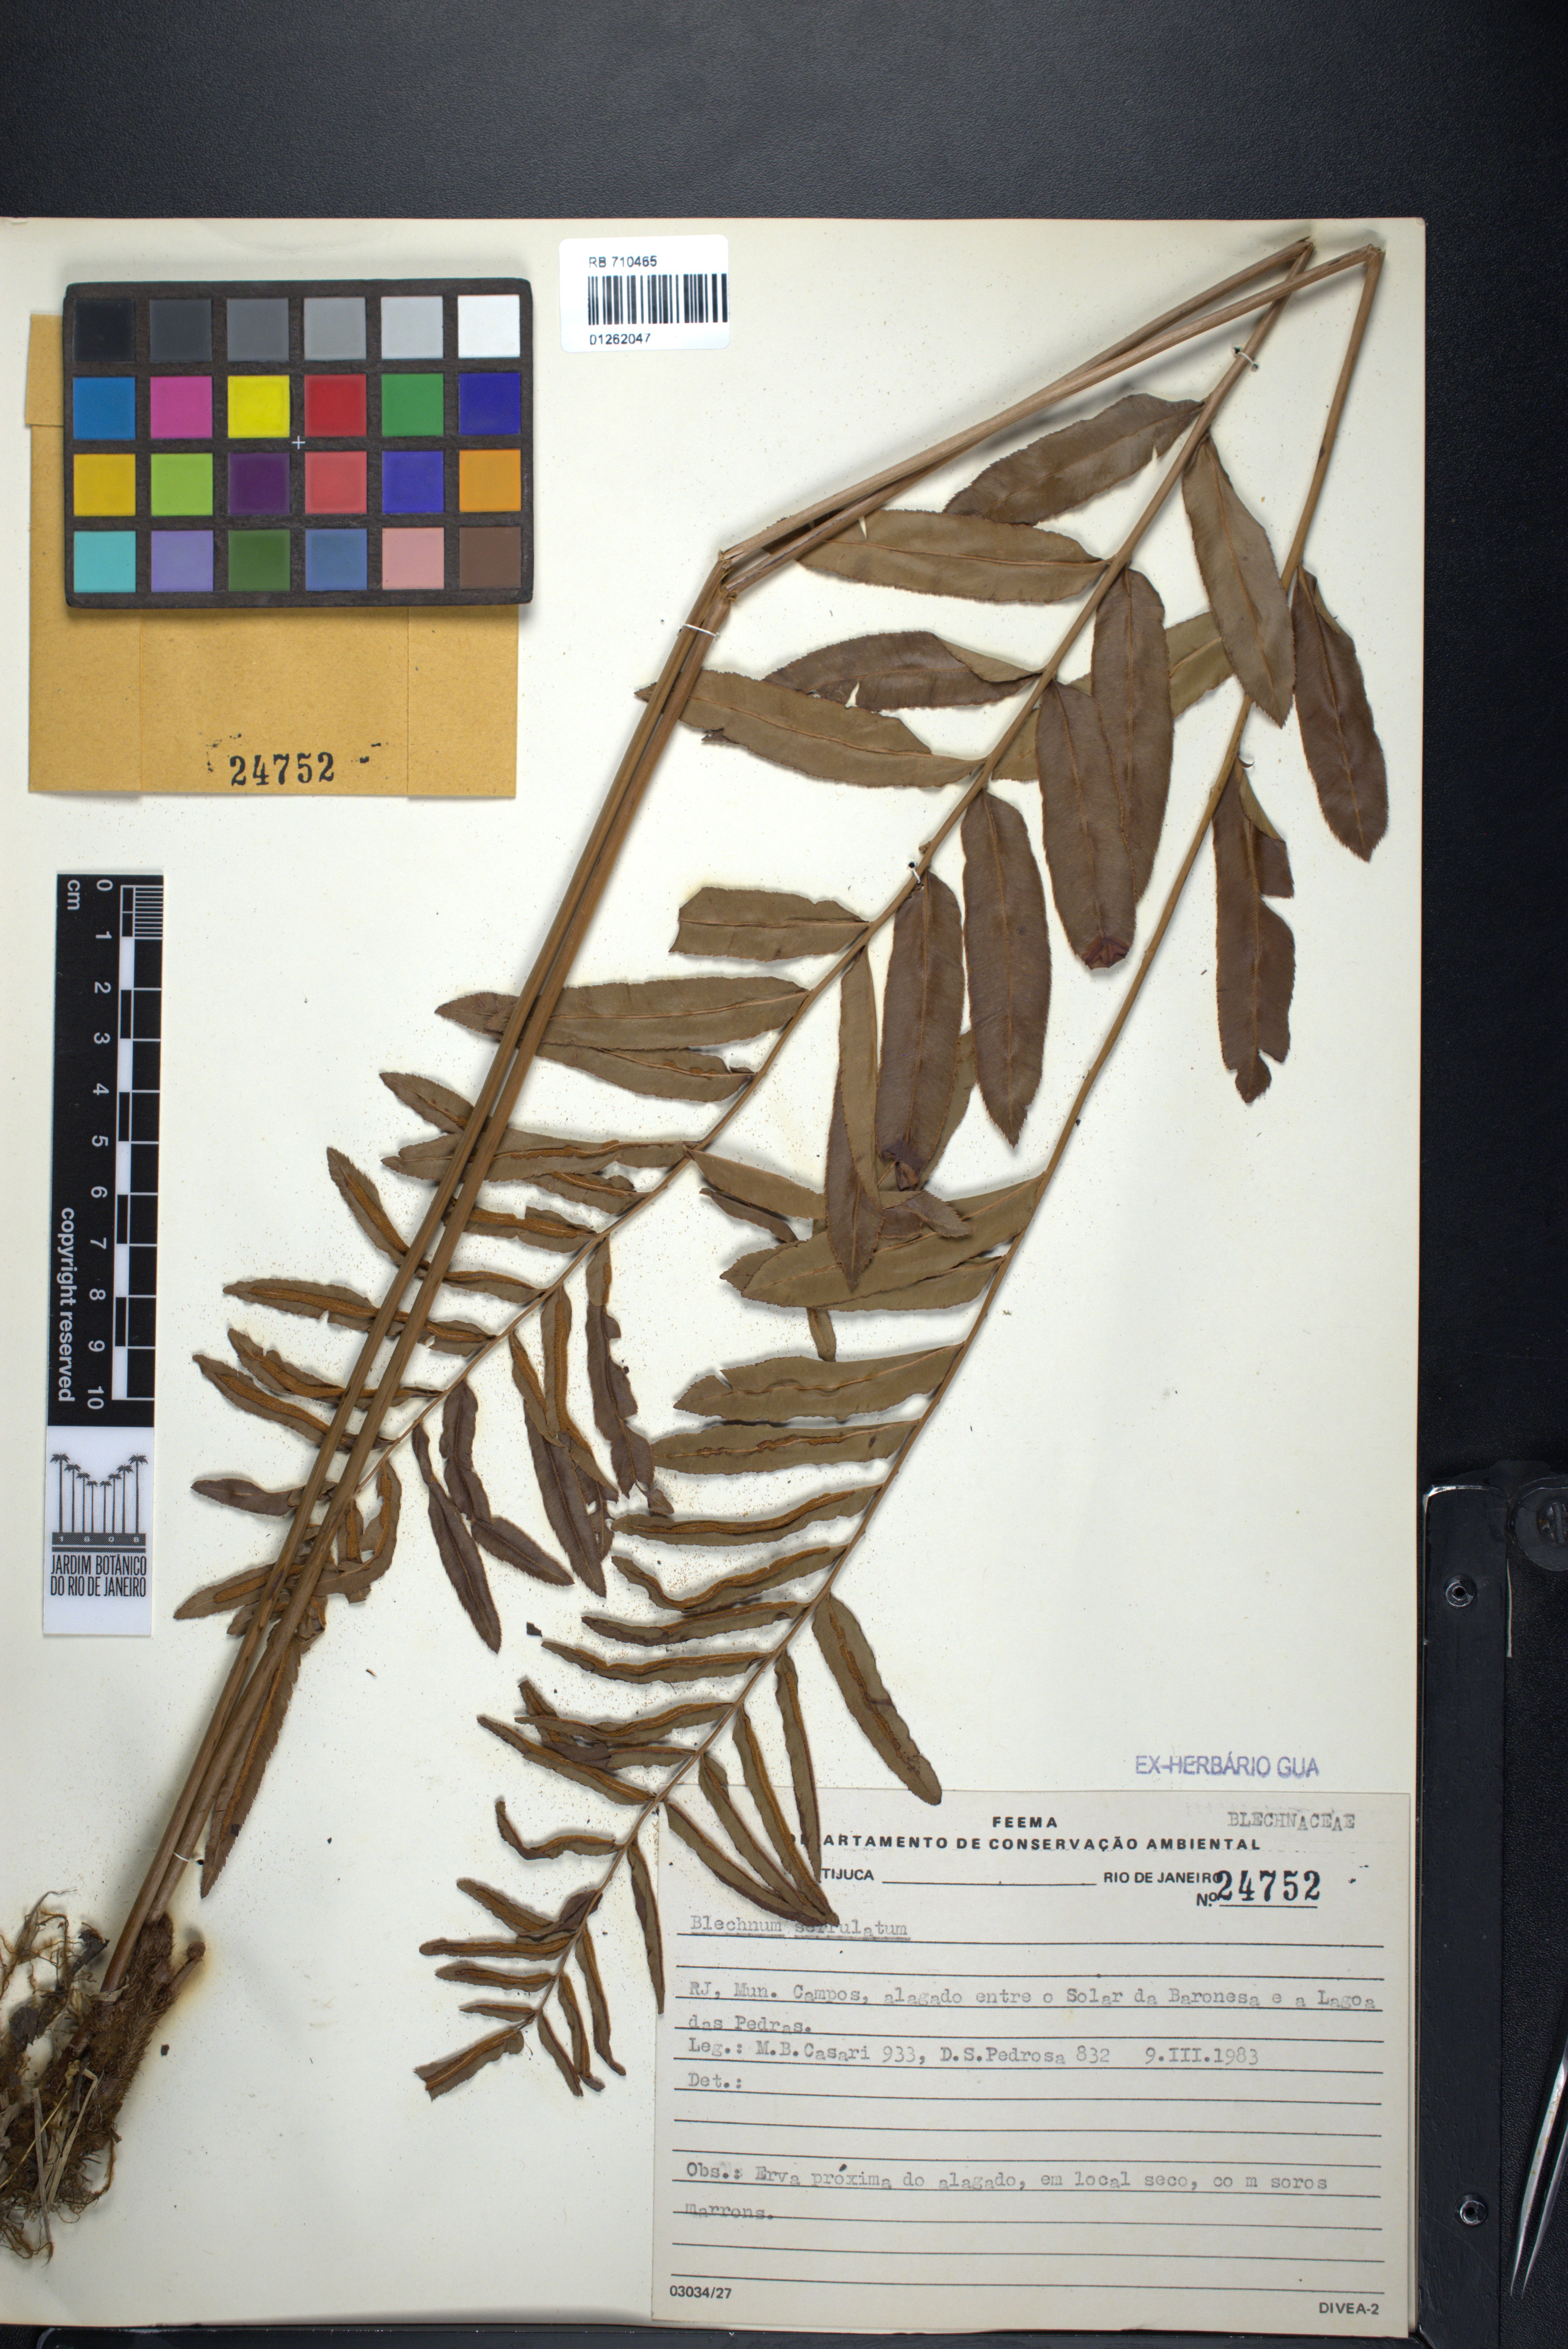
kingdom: Plantae
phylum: Tracheophyta
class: Polypodiopsida
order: Polypodiales
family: Blechnaceae
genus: Telmatoblechnum
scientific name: Telmatoblechnum serrulatum
